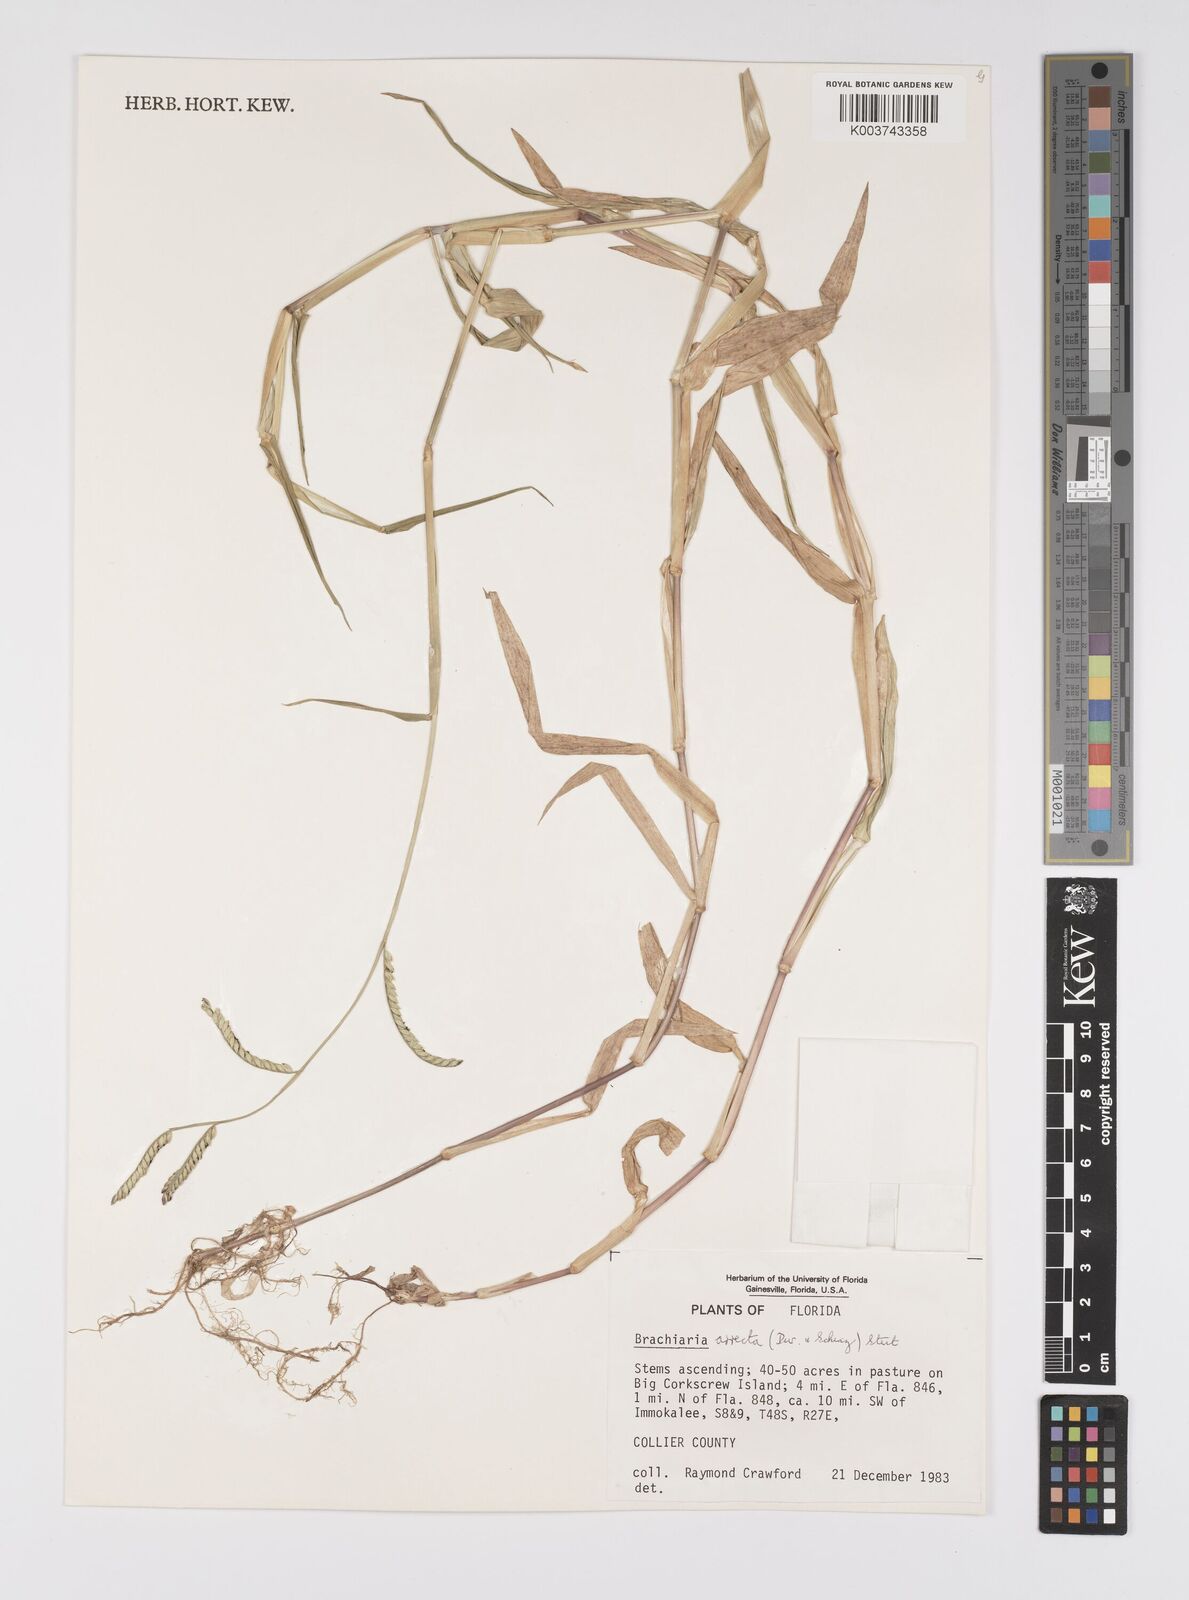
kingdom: Plantae
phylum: Tracheophyta
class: Liliopsida
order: Poales
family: Poaceae
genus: Urochloa
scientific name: Urochloa arrecta
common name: African signalgrass
